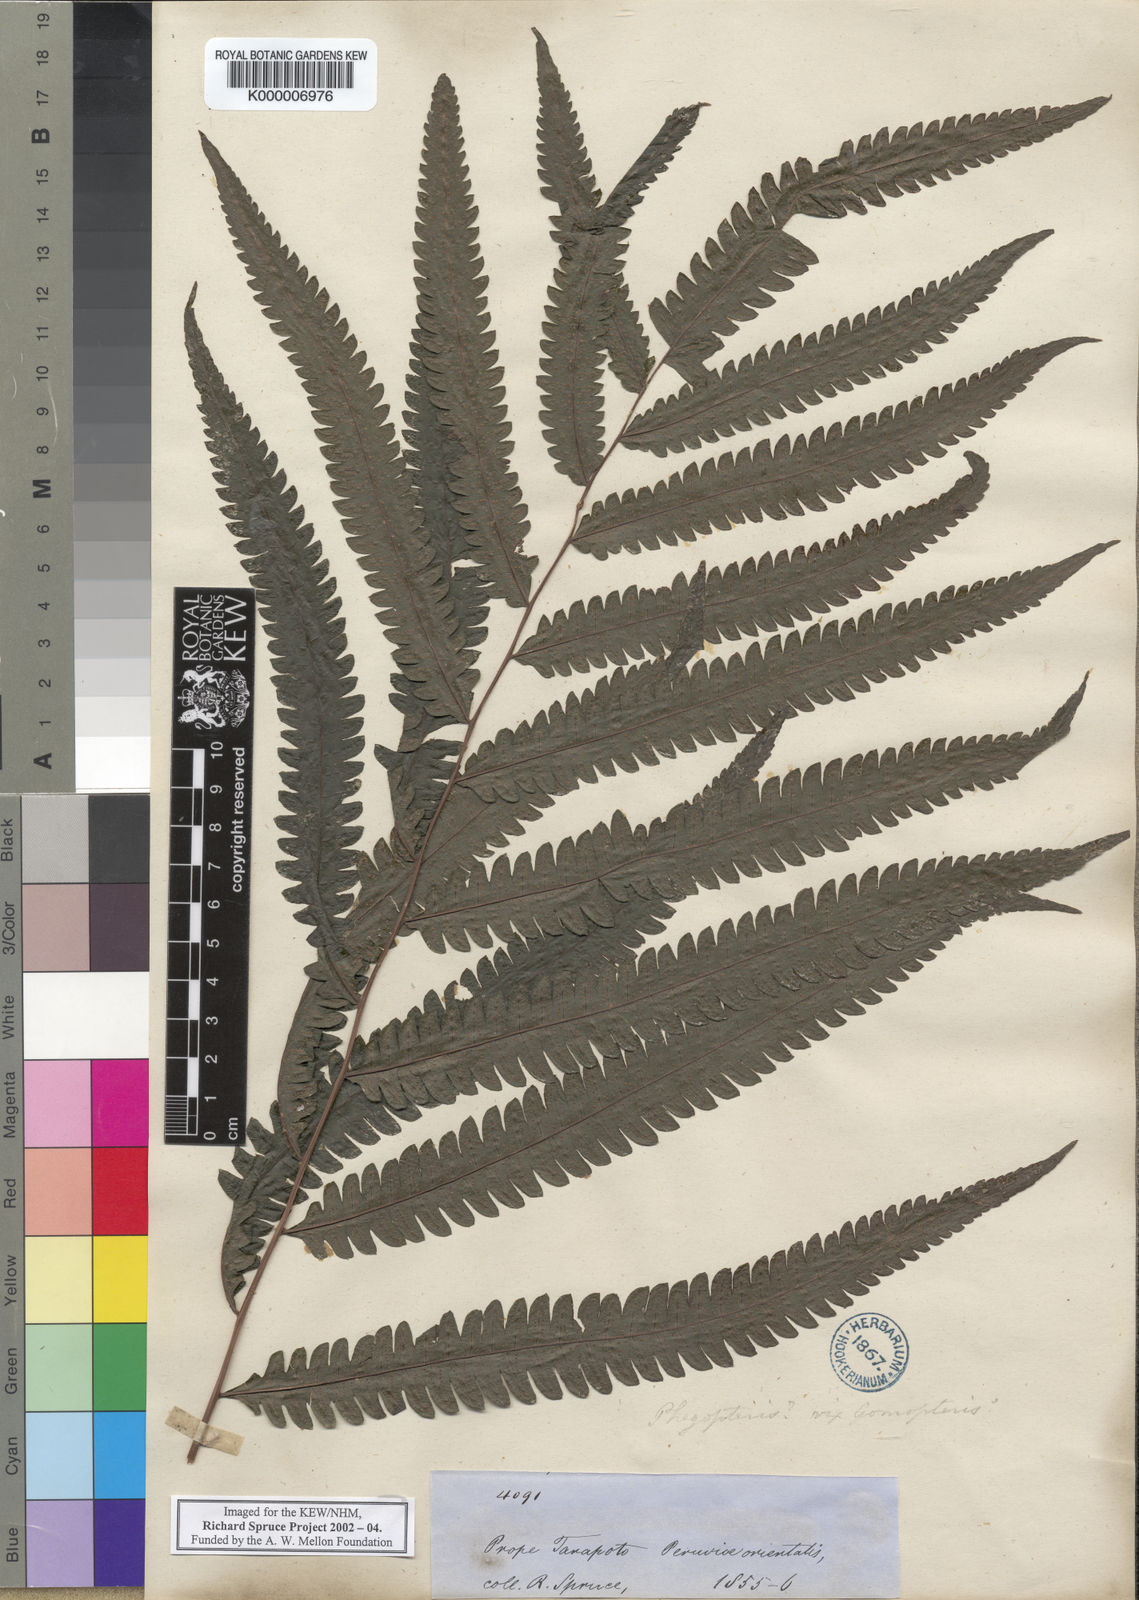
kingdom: Plantae
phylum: Tracheophyta
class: Polypodiopsida
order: Polypodiales
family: Polypodiaceae
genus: Goniophlebium
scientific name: Goniophlebium
